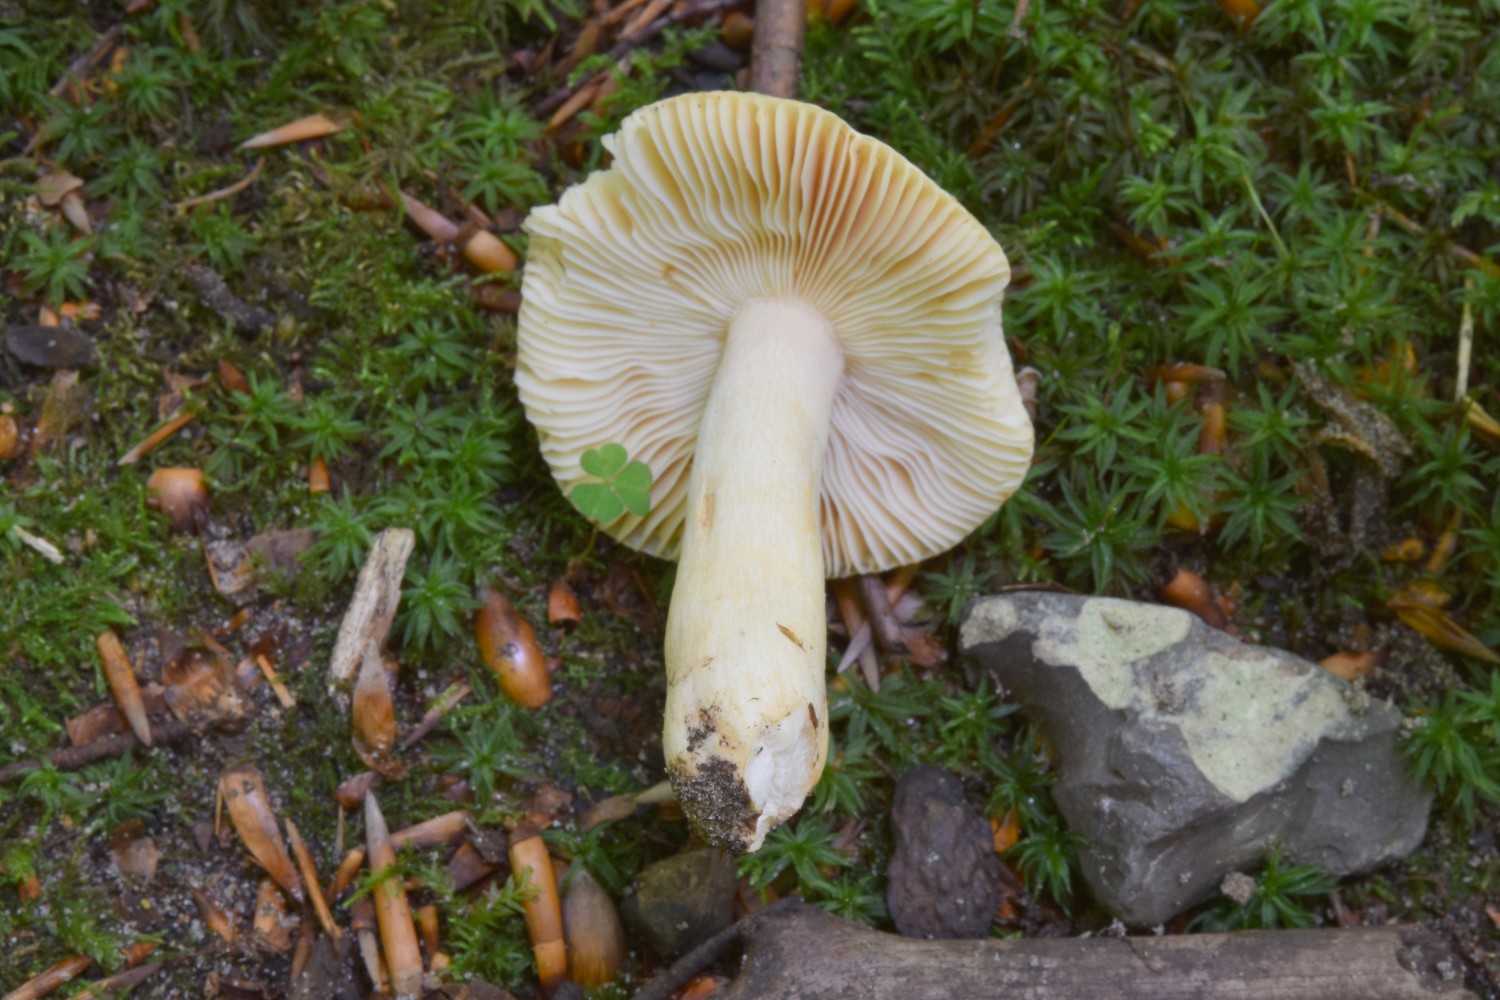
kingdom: Fungi
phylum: Basidiomycota
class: Agaricomycetes
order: Russulales
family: Russulaceae
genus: Russula
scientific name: Russula fellea
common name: galde-skørhat
